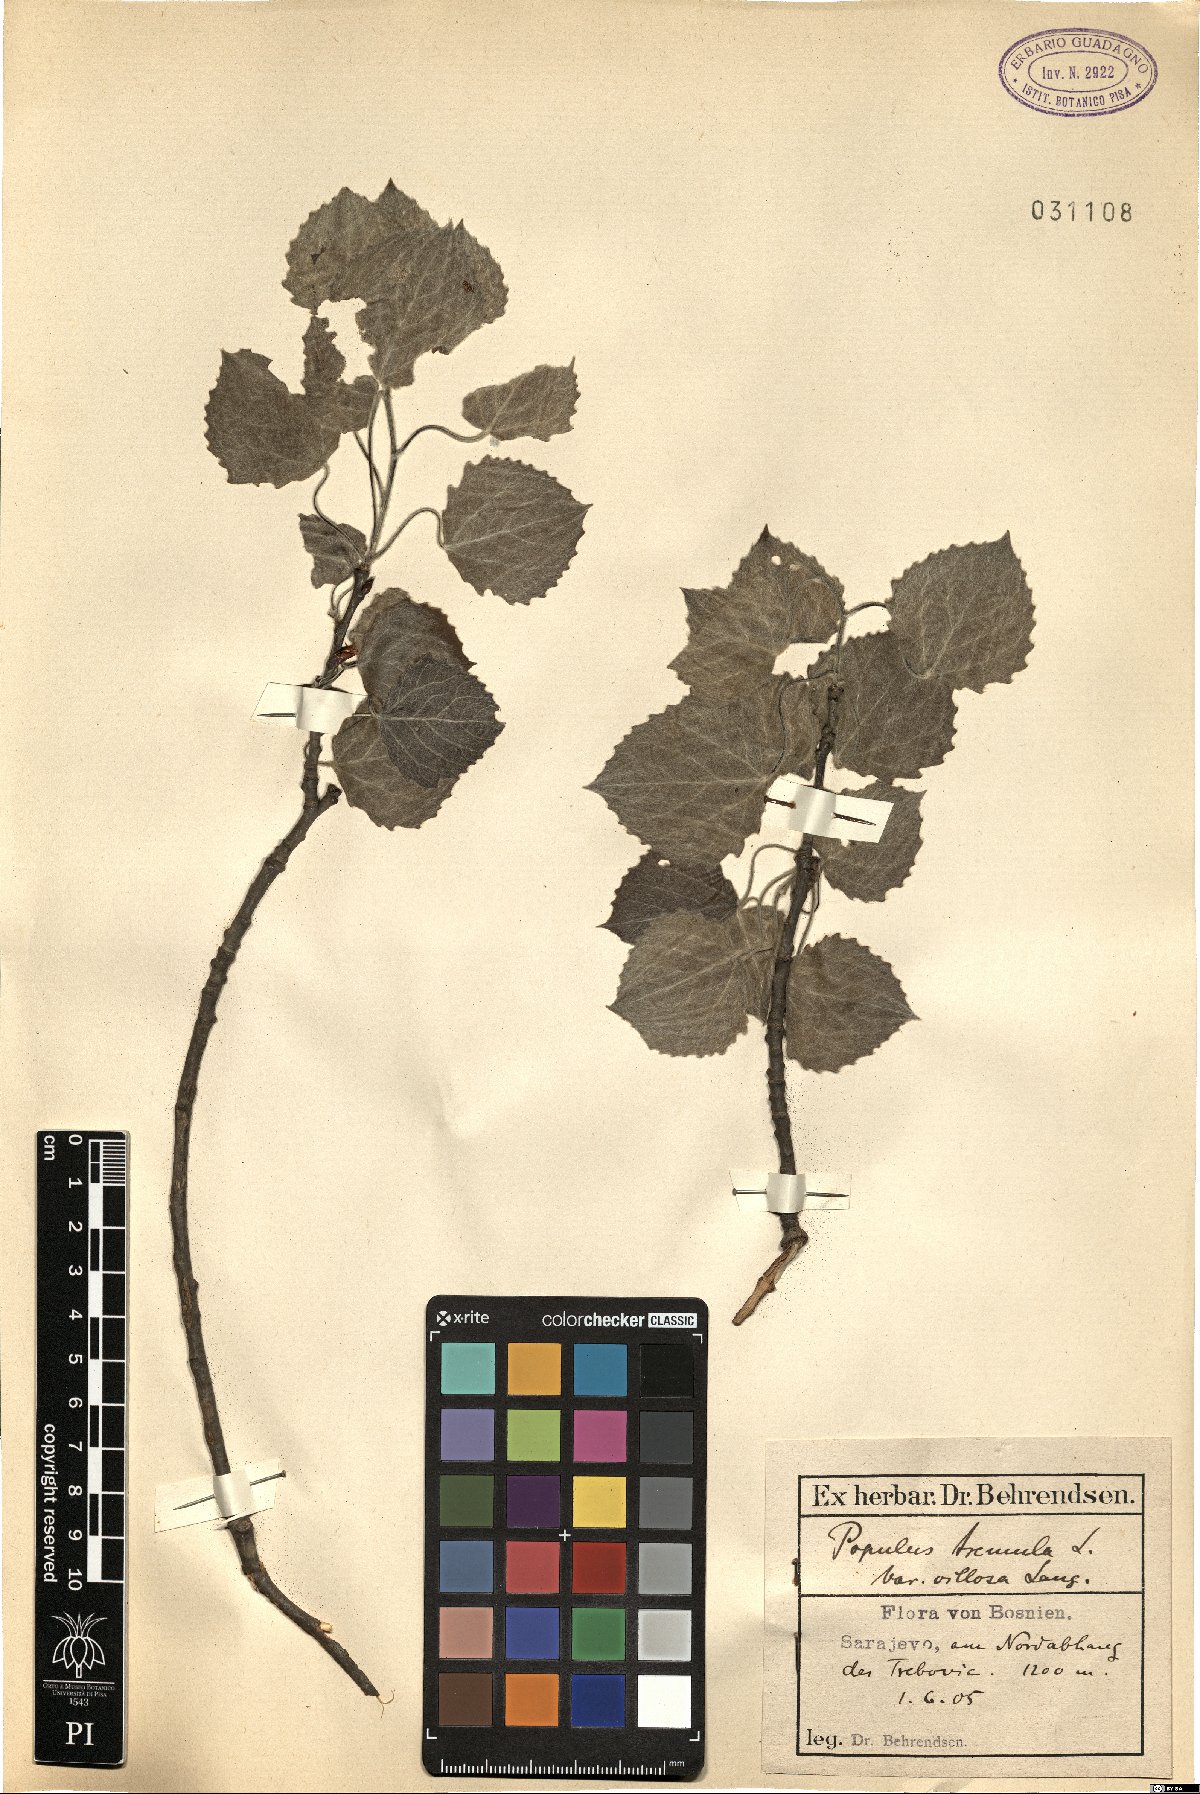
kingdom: Plantae
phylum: Tracheophyta
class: Magnoliopsida
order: Malpighiales
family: Salicaceae
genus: Populus
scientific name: Populus tremula
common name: European aspen
